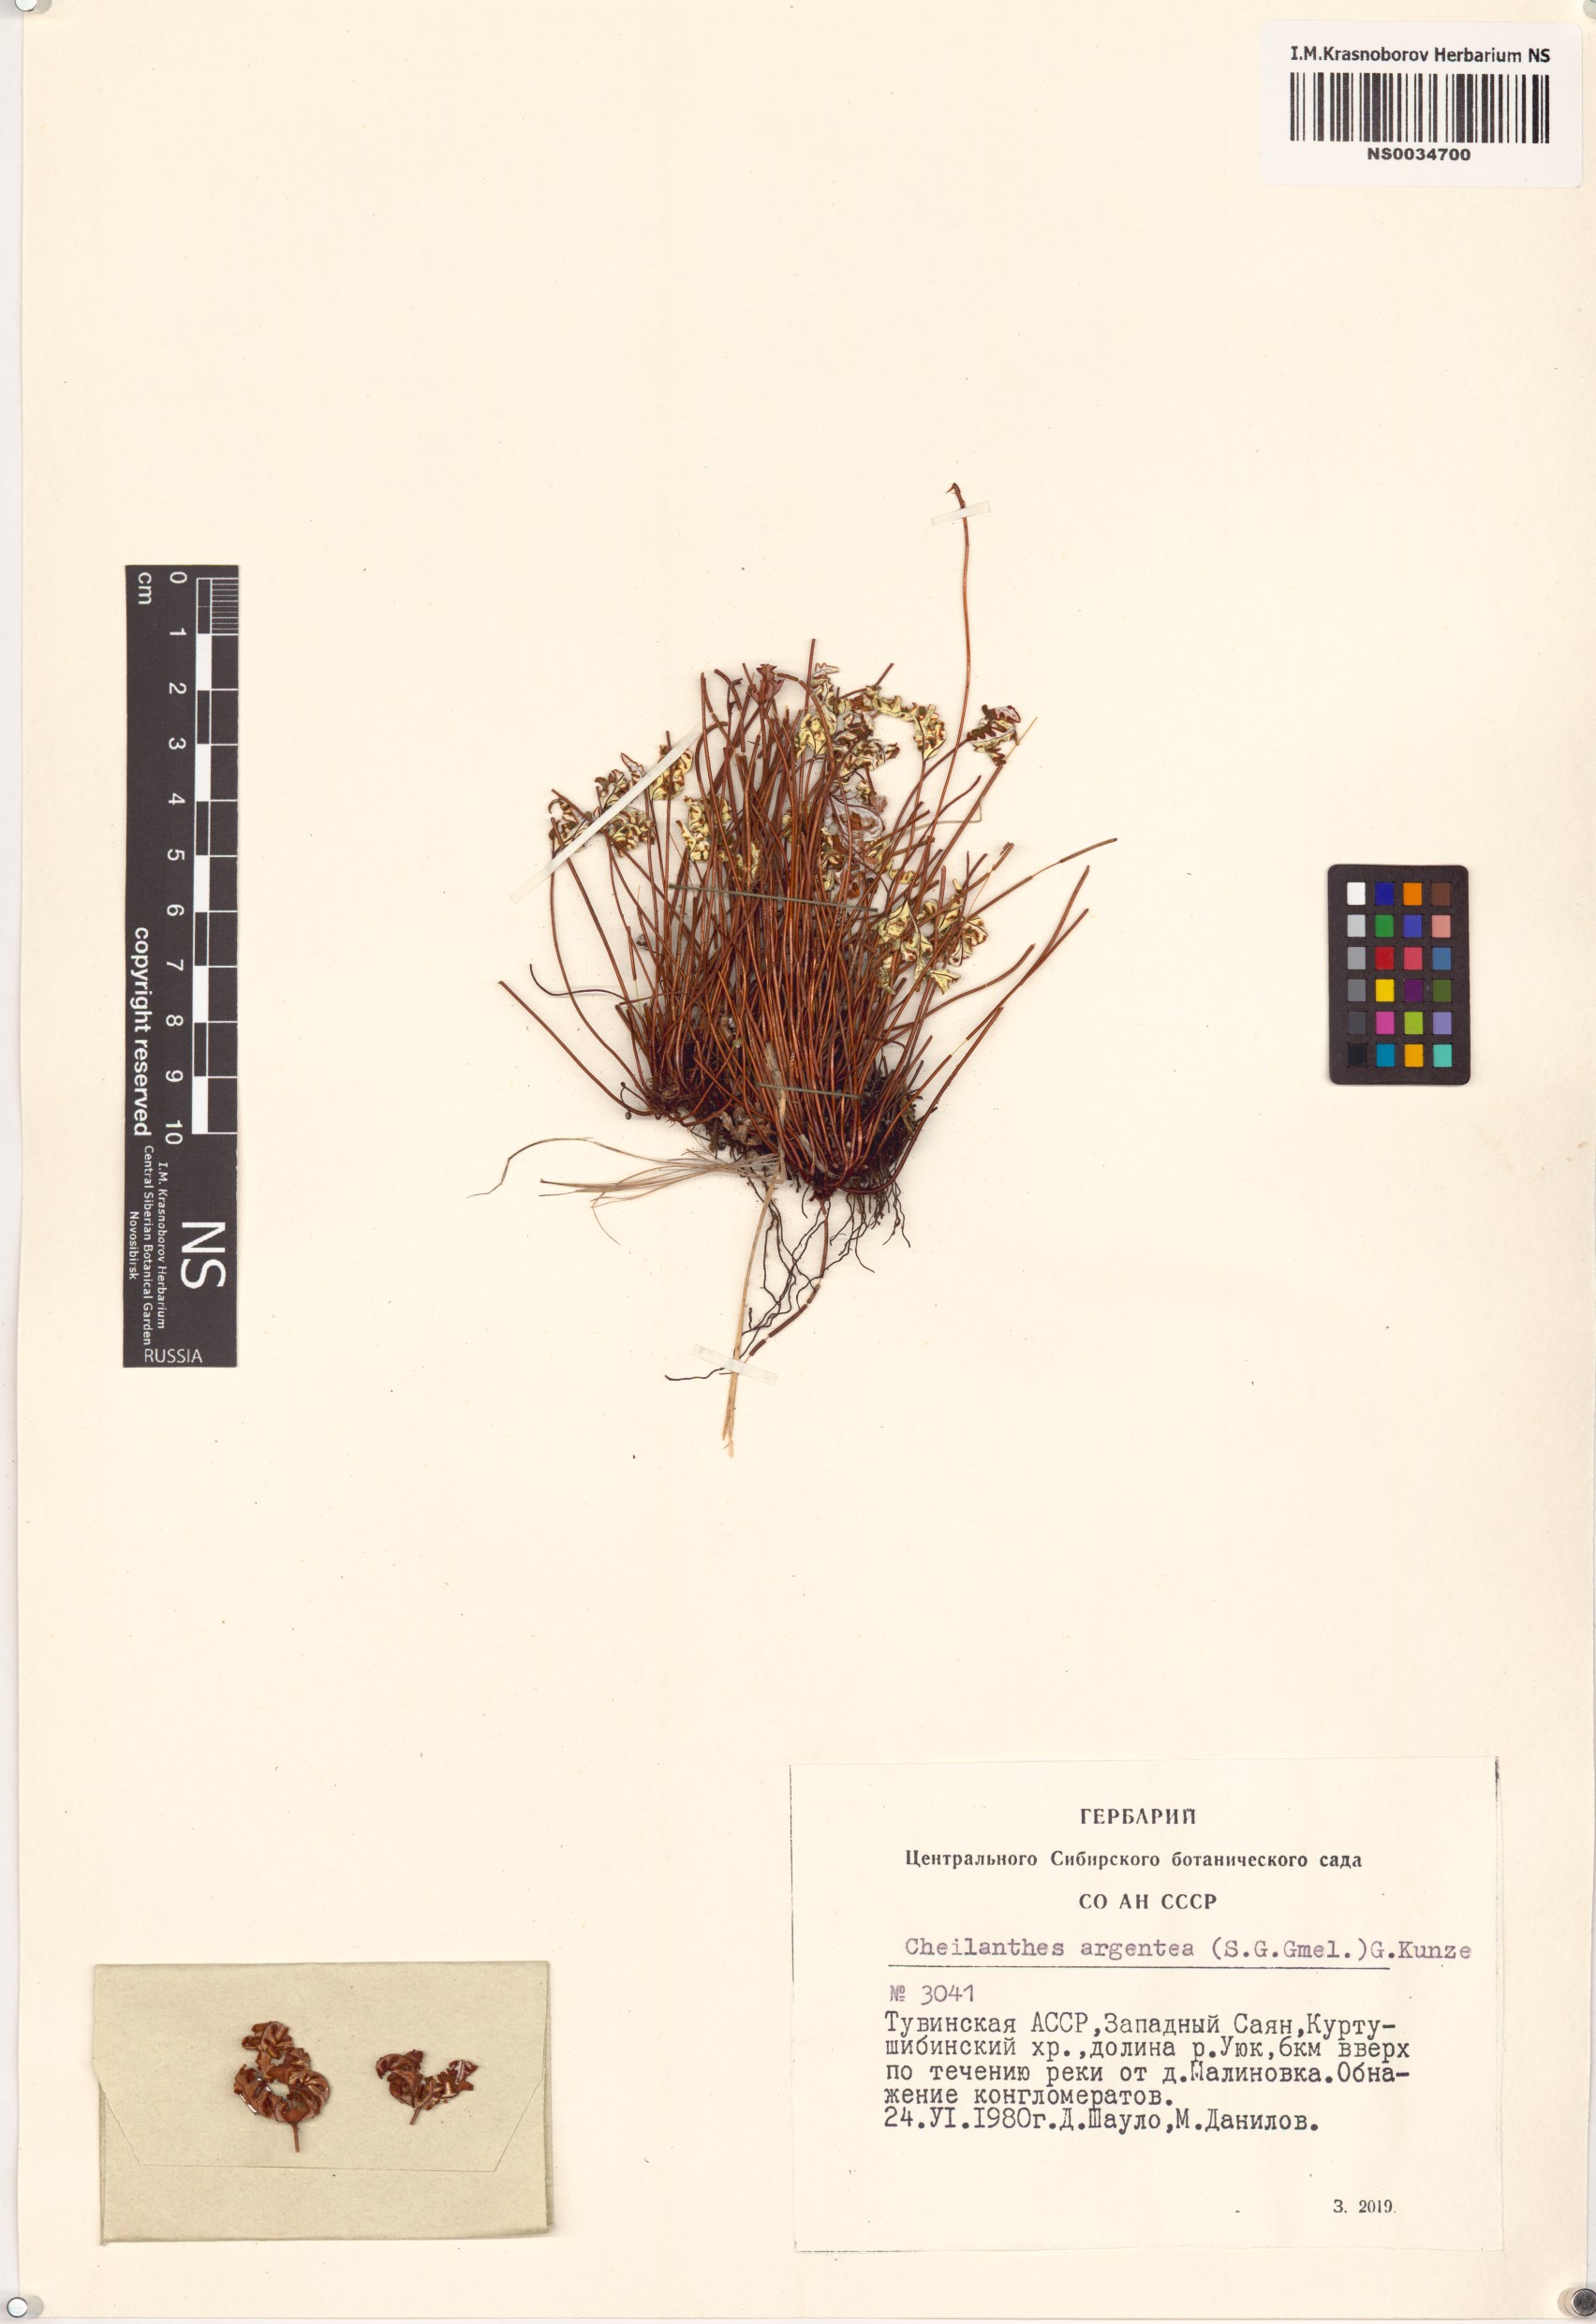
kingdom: Plantae
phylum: Tracheophyta
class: Polypodiopsida
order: Polypodiales
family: Pteridaceae
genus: Aleuritopteris
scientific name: Aleuritopteris argentea
